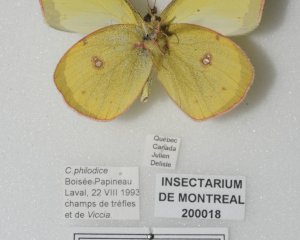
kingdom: Animalia
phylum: Arthropoda
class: Insecta
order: Lepidoptera
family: Pieridae
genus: Colias
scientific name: Colias philodice
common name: Clouded Sulphur
